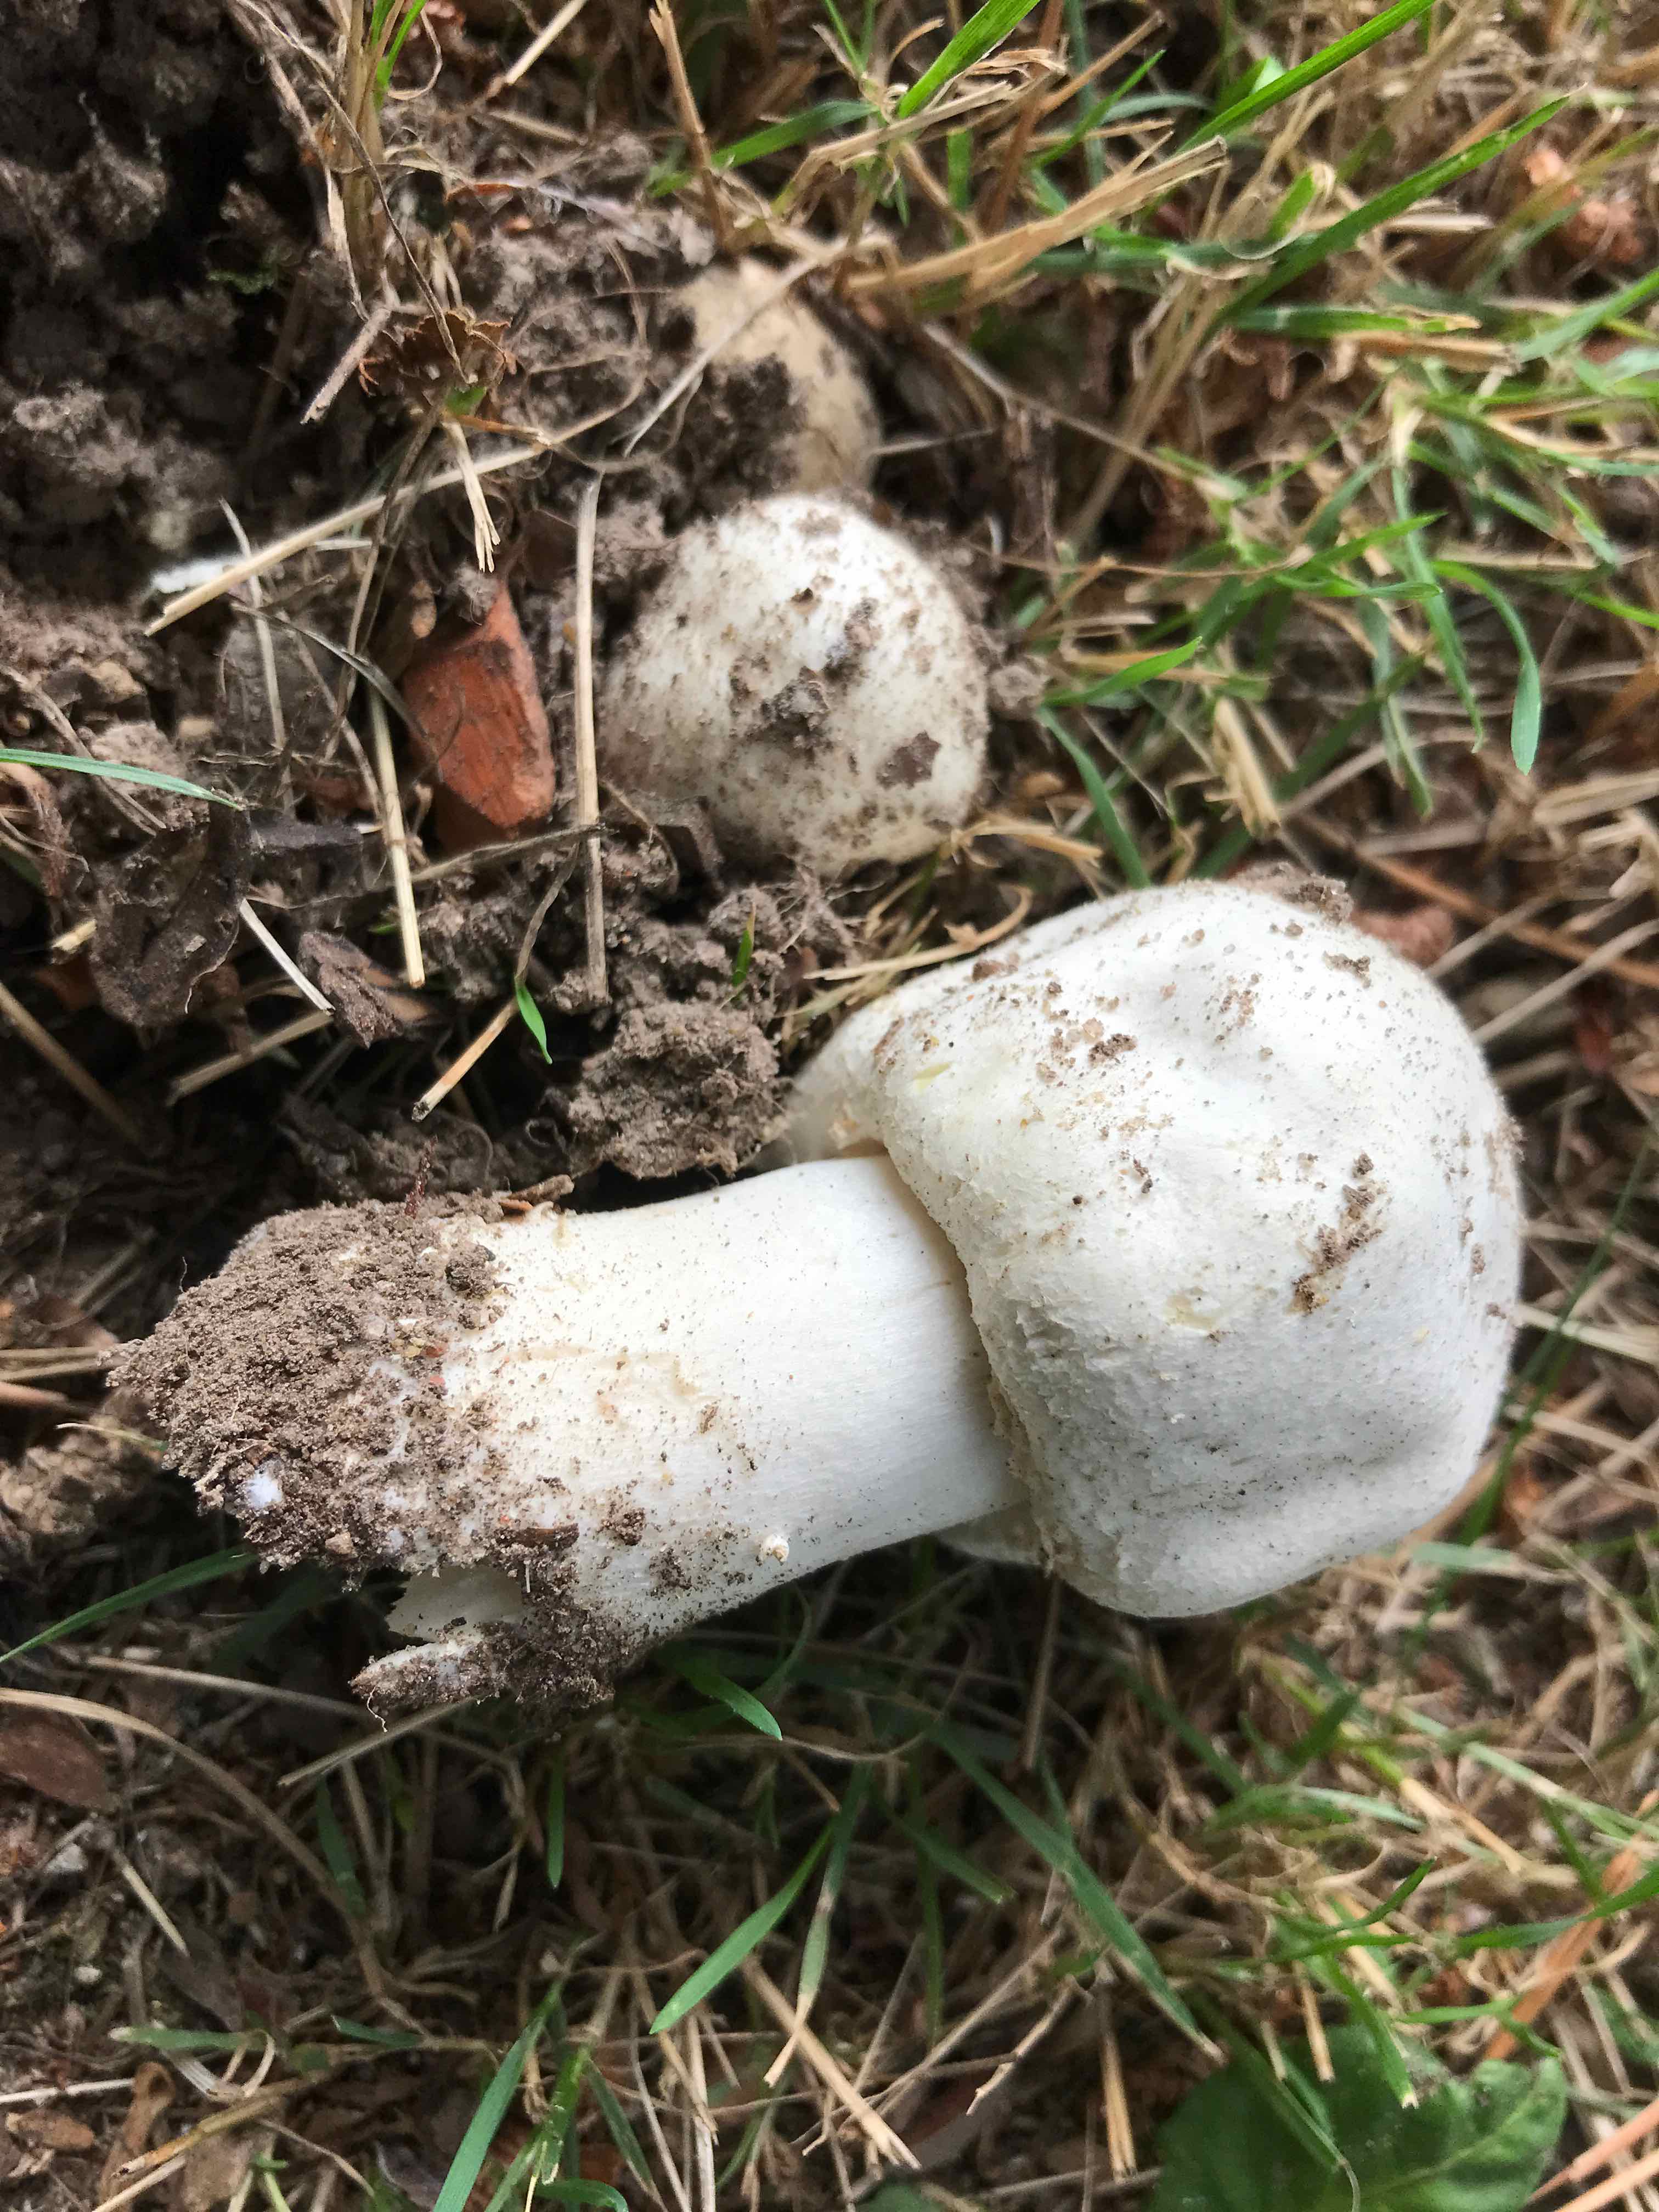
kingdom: Fungi
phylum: Basidiomycota
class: Agaricomycetes
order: Agaricales
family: Agaricaceae
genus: Agaricus
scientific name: Agaricus arvensis
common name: ager-champignon
